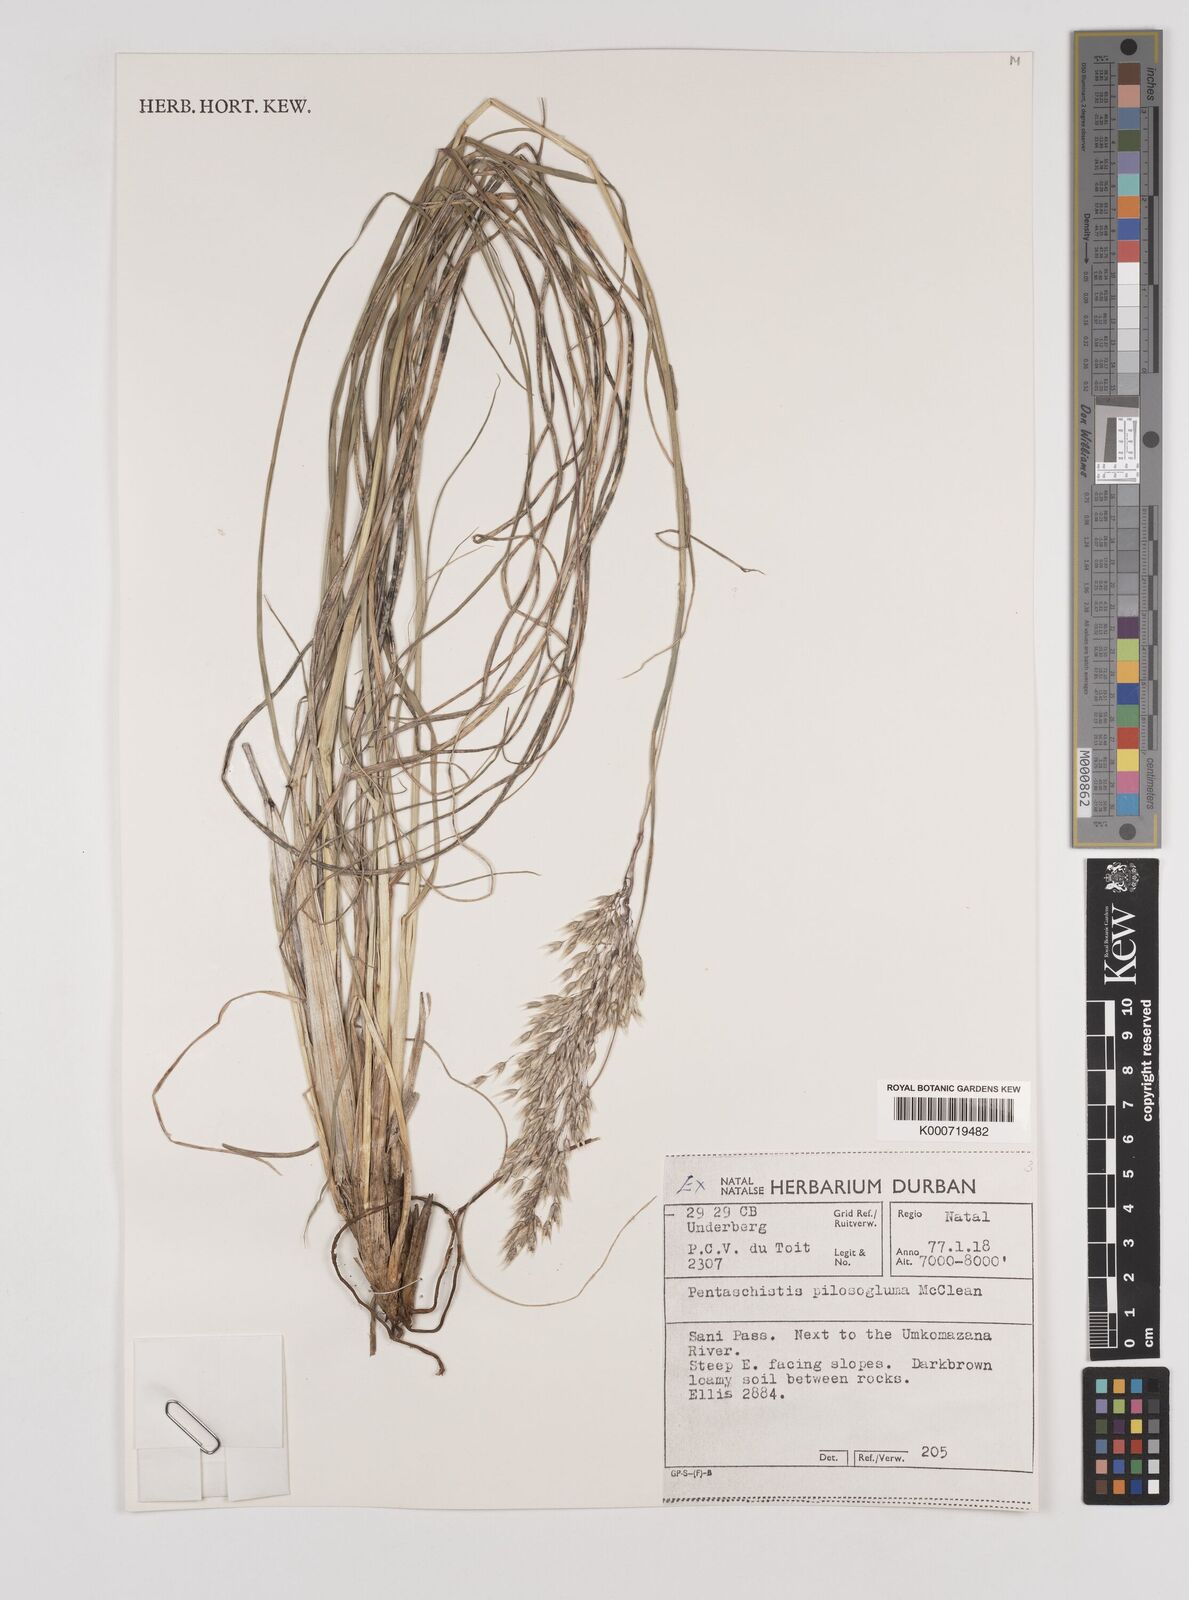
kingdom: Plantae
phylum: Tracheophyta
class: Liliopsida
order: Poales
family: Poaceae
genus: Pentameris
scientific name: Pentameris aurea
